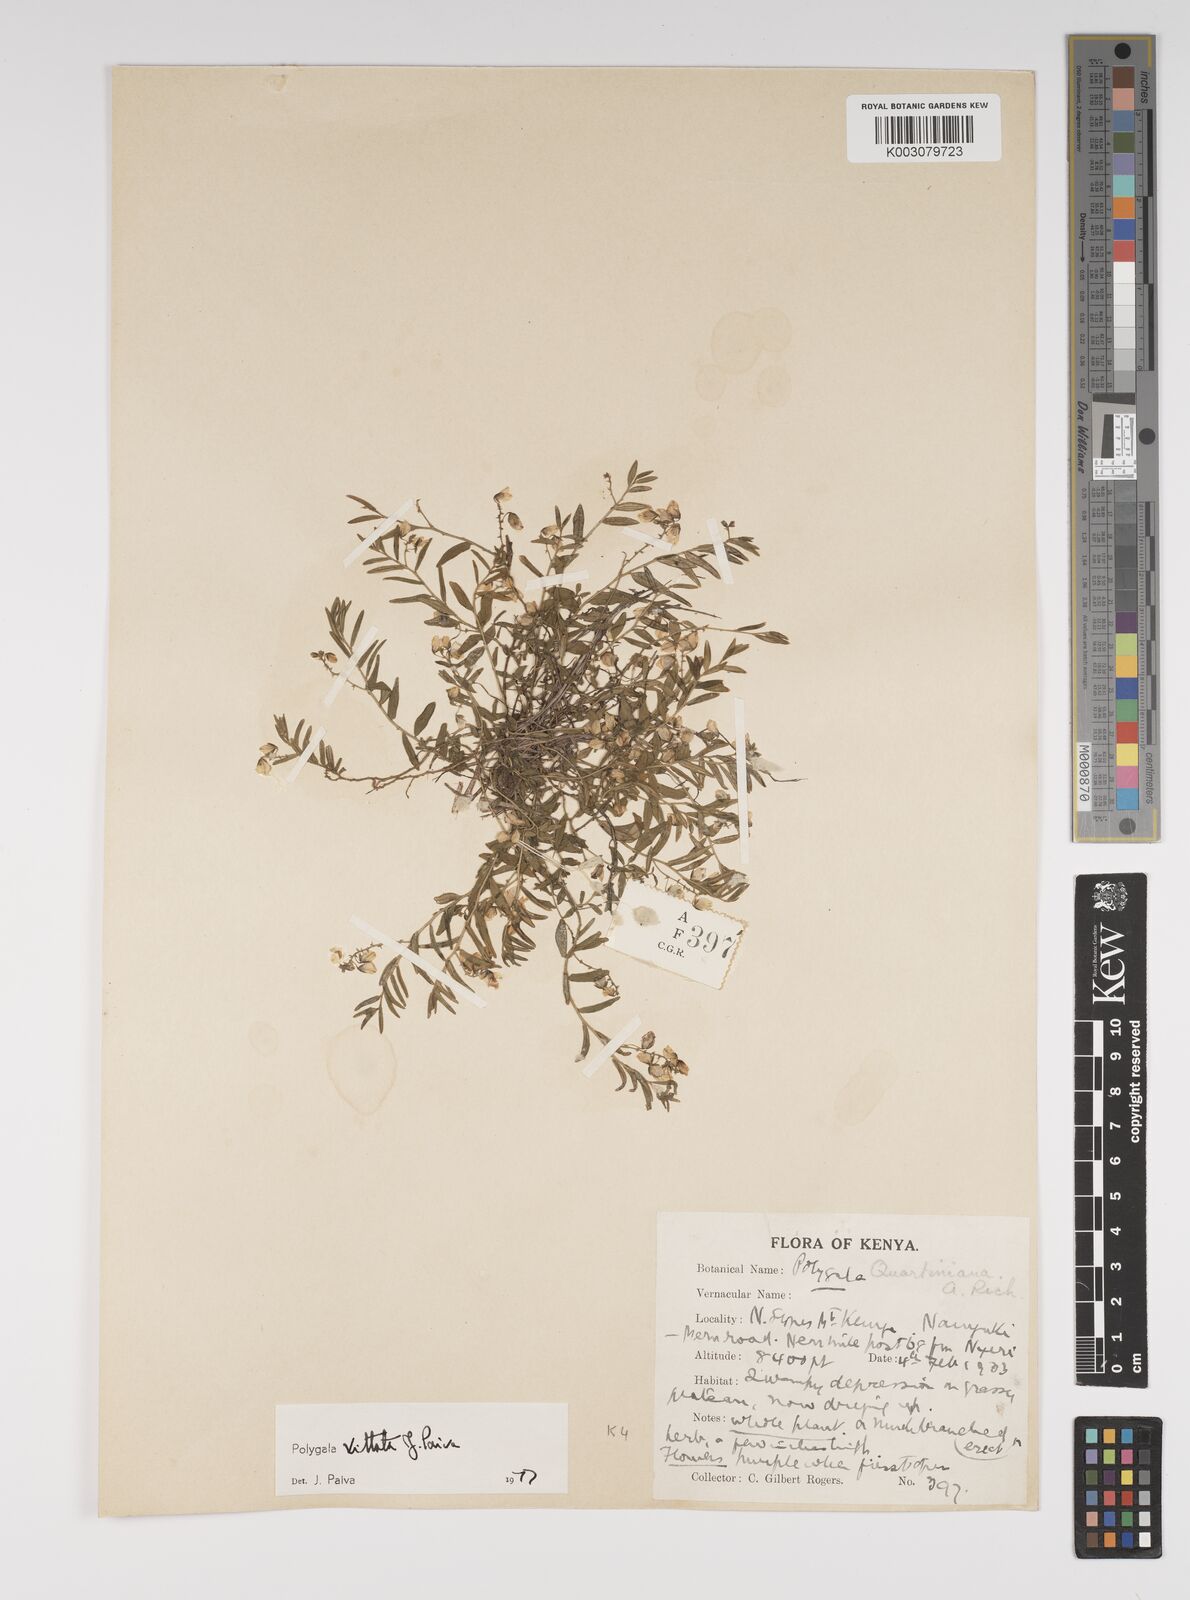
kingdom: Plantae
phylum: Tracheophyta
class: Magnoliopsida
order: Fabales
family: Polygalaceae
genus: Polygala
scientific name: Polygala vittata
